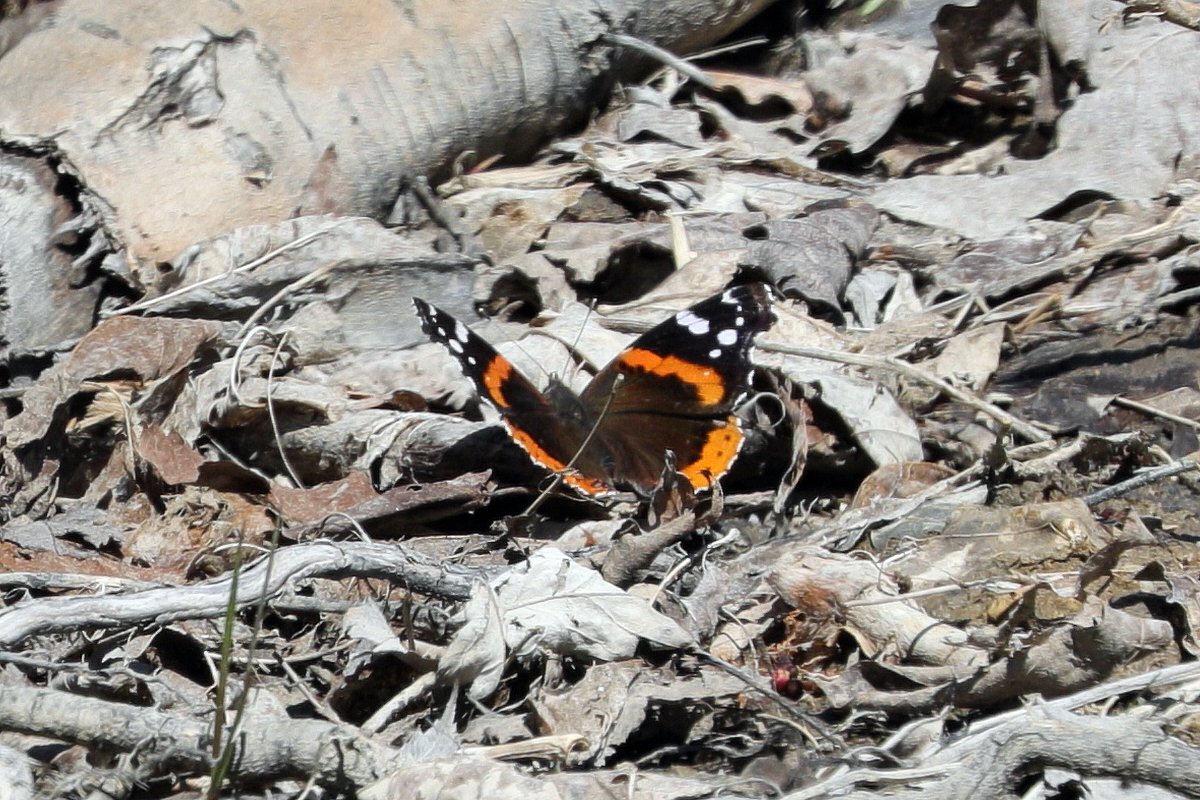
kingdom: Animalia
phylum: Arthropoda
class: Insecta
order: Lepidoptera
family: Nymphalidae
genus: Vanessa
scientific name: Vanessa atalanta
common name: Red Admiral
